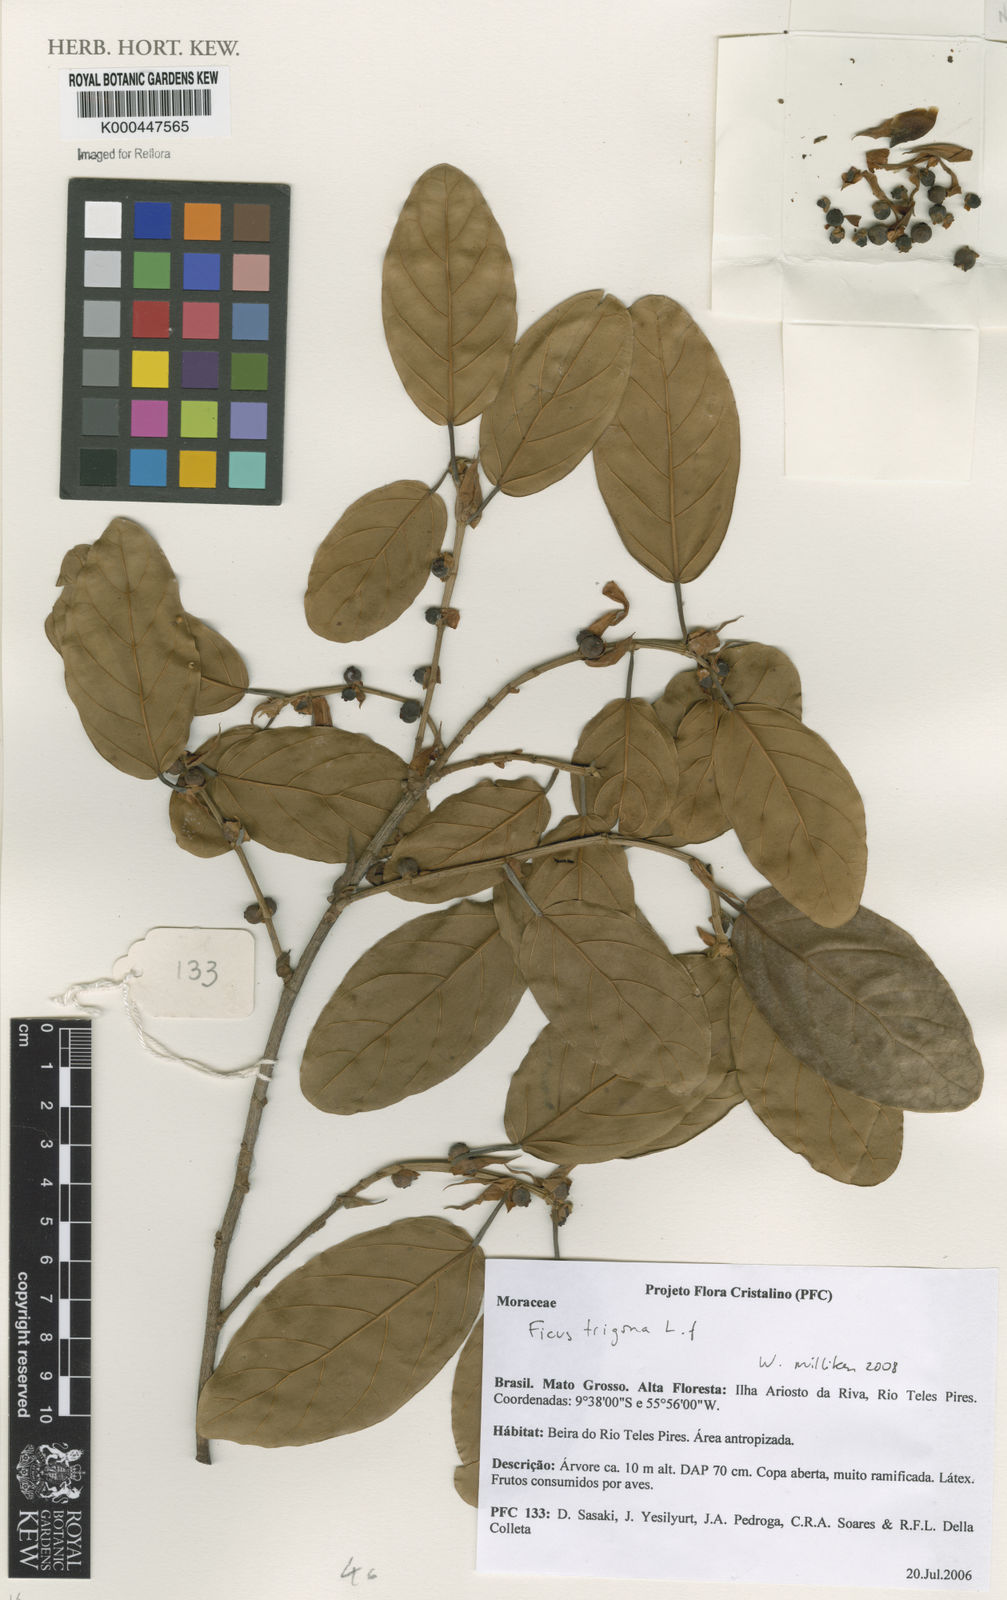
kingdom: Plantae
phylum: Tracheophyta
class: Magnoliopsida
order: Rosales
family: Moraceae
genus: Ficus
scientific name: Ficus trigona
